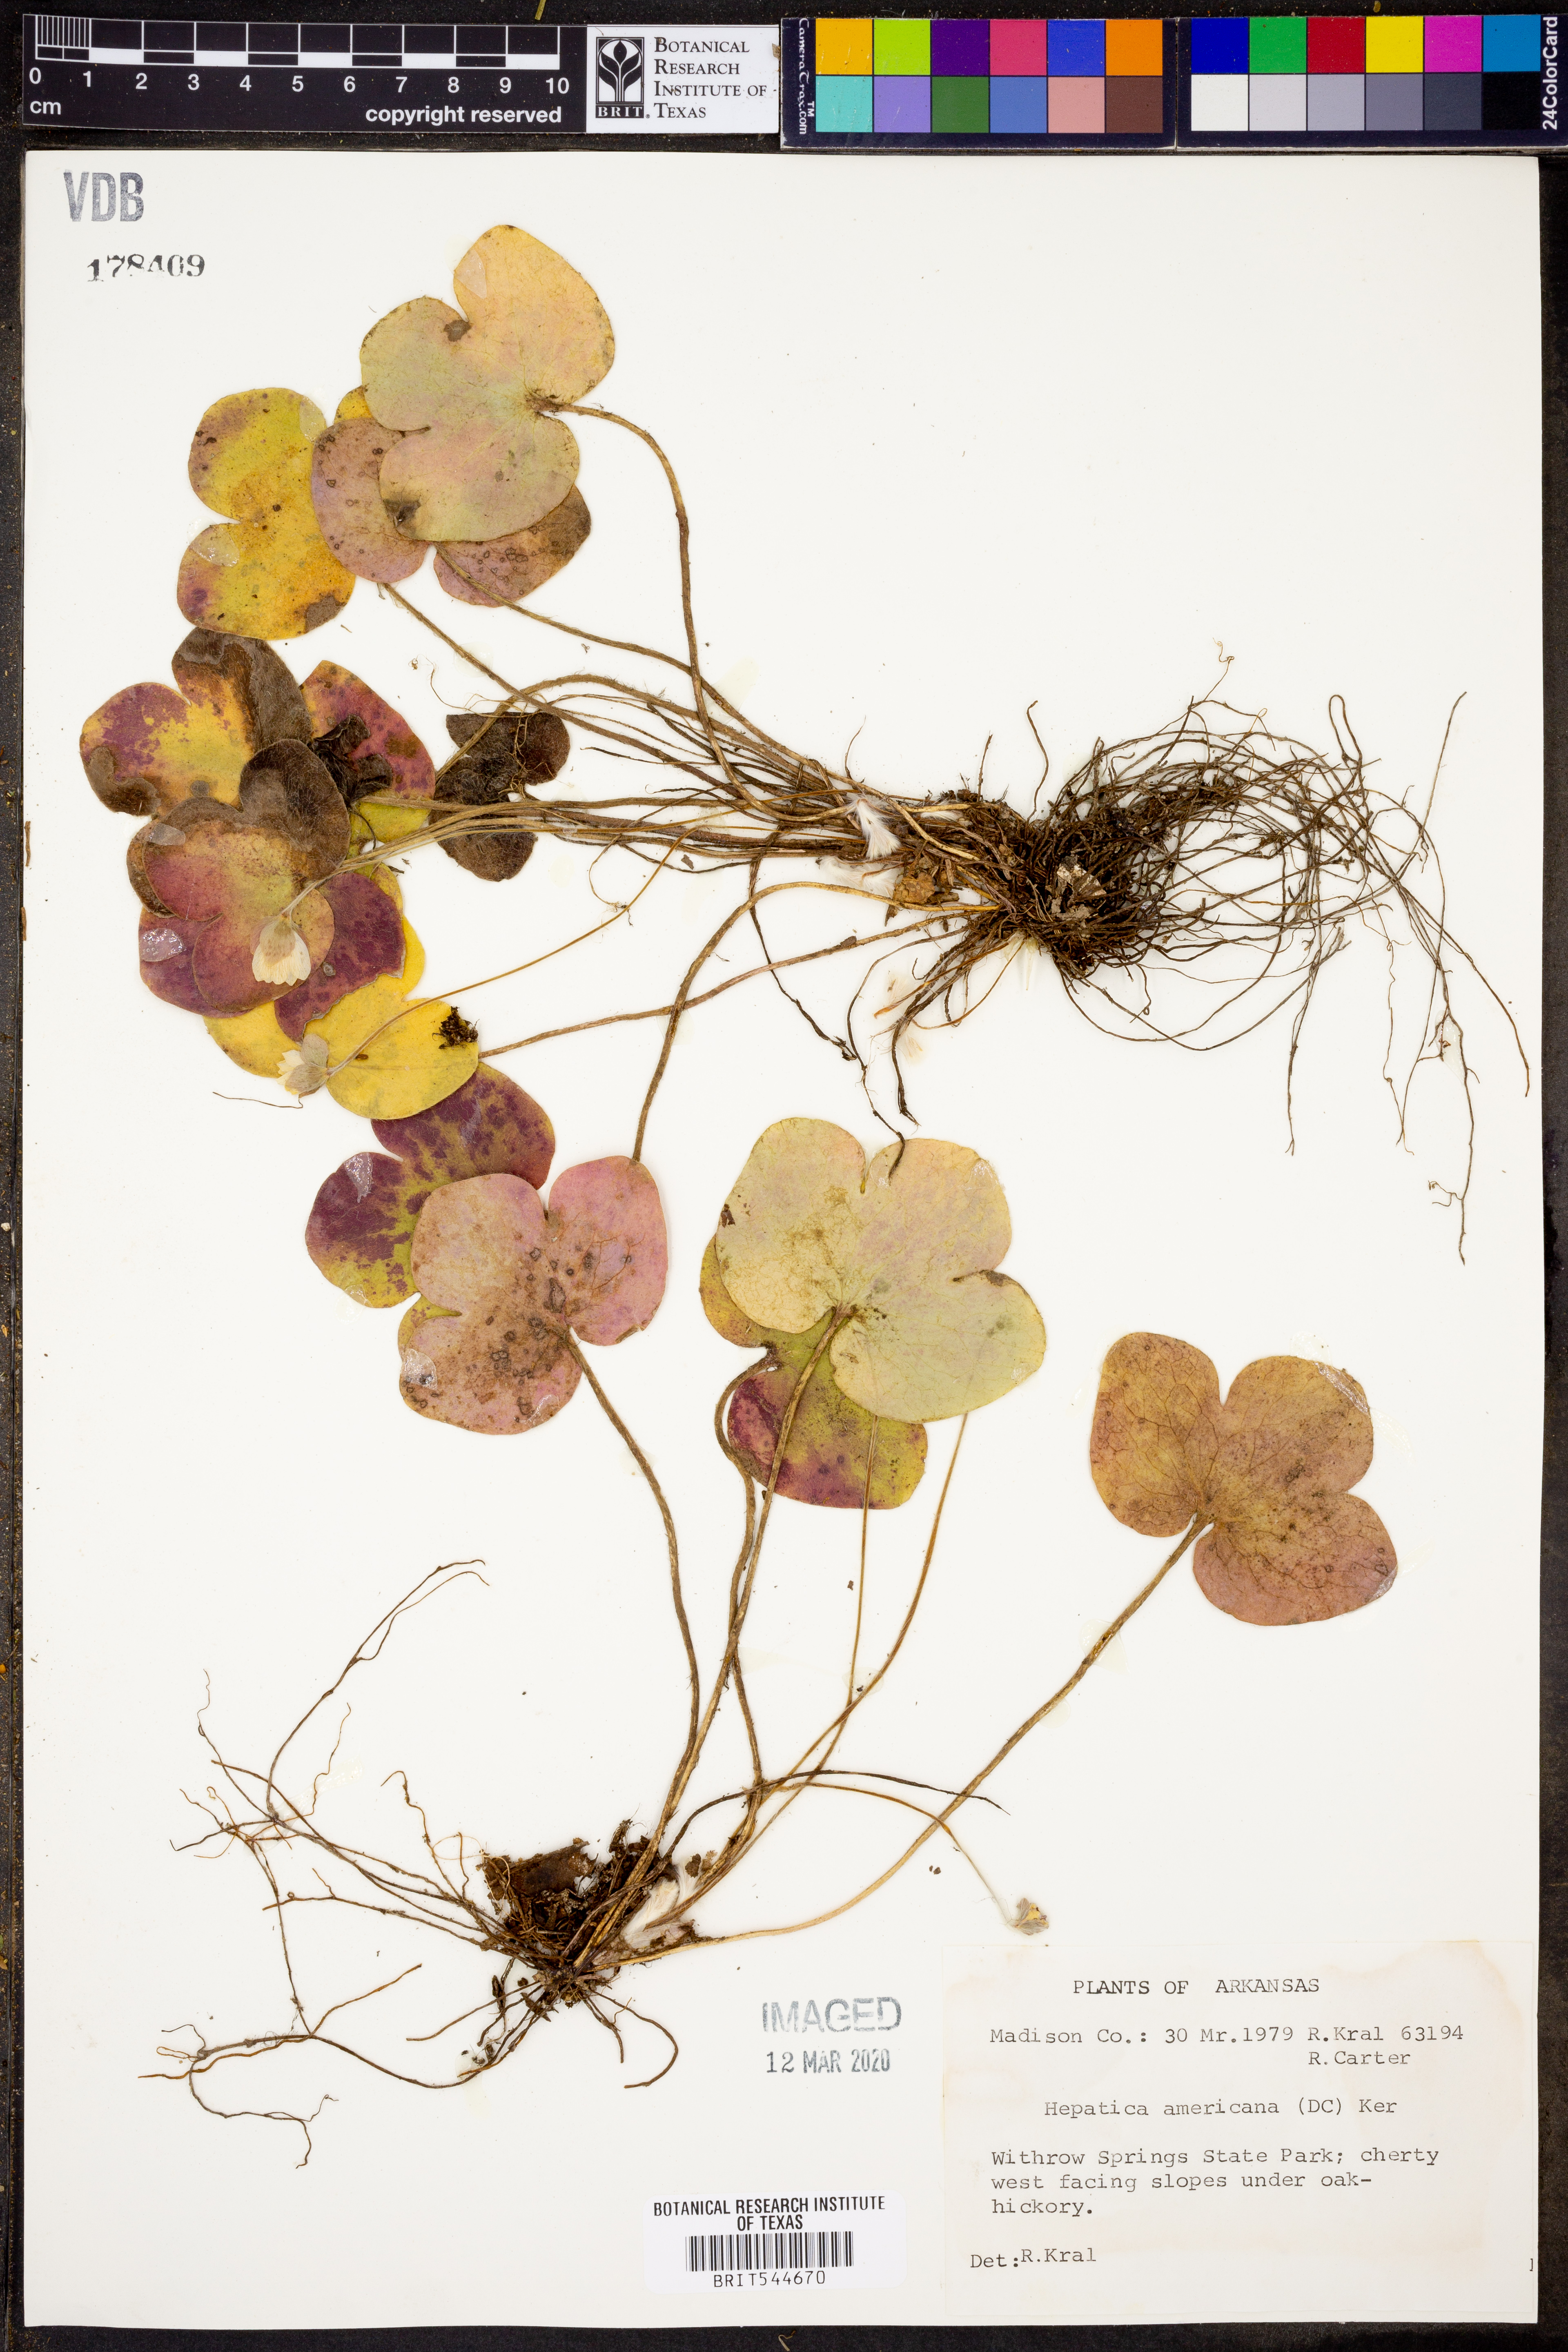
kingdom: Plantae
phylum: Tracheophyta
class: Magnoliopsida
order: Ranunculales
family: Ranunculaceae
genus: Hepatica
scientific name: Hepatica americana
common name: American hepatica
